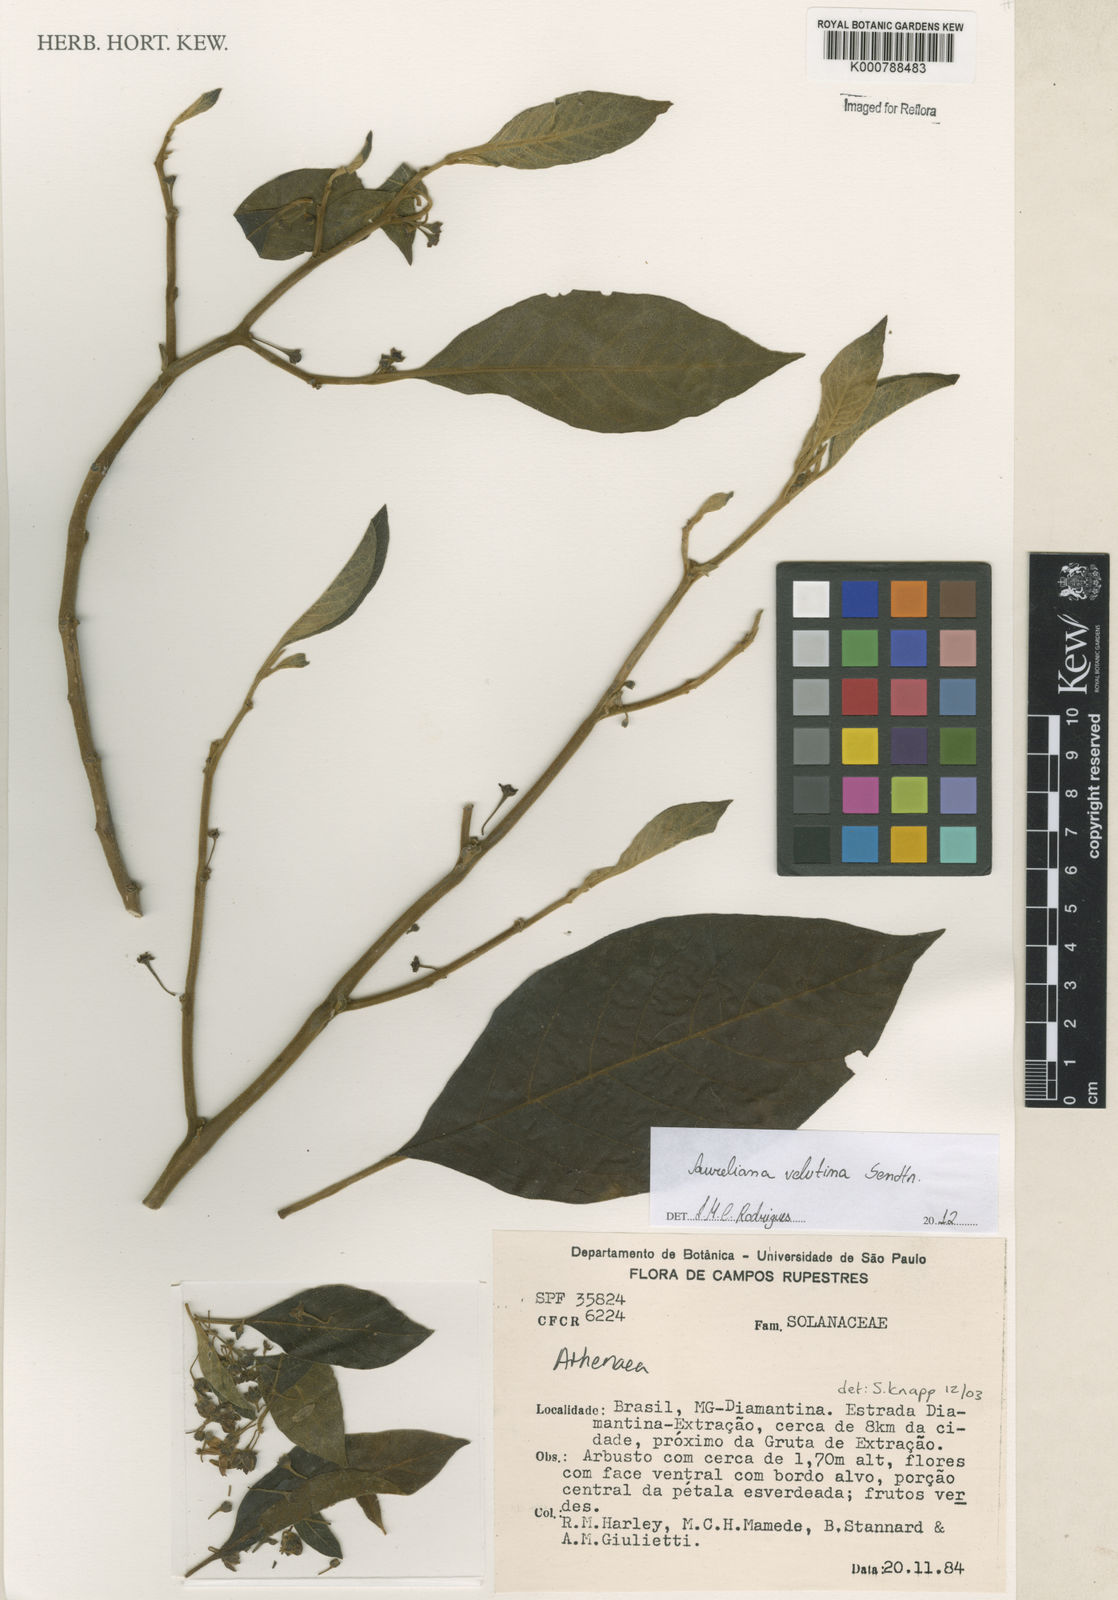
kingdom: Plantae
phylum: Tracheophyta
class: Magnoliopsida
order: Solanales
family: Solanaceae
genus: Athenaea
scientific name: Athenaea velutina
